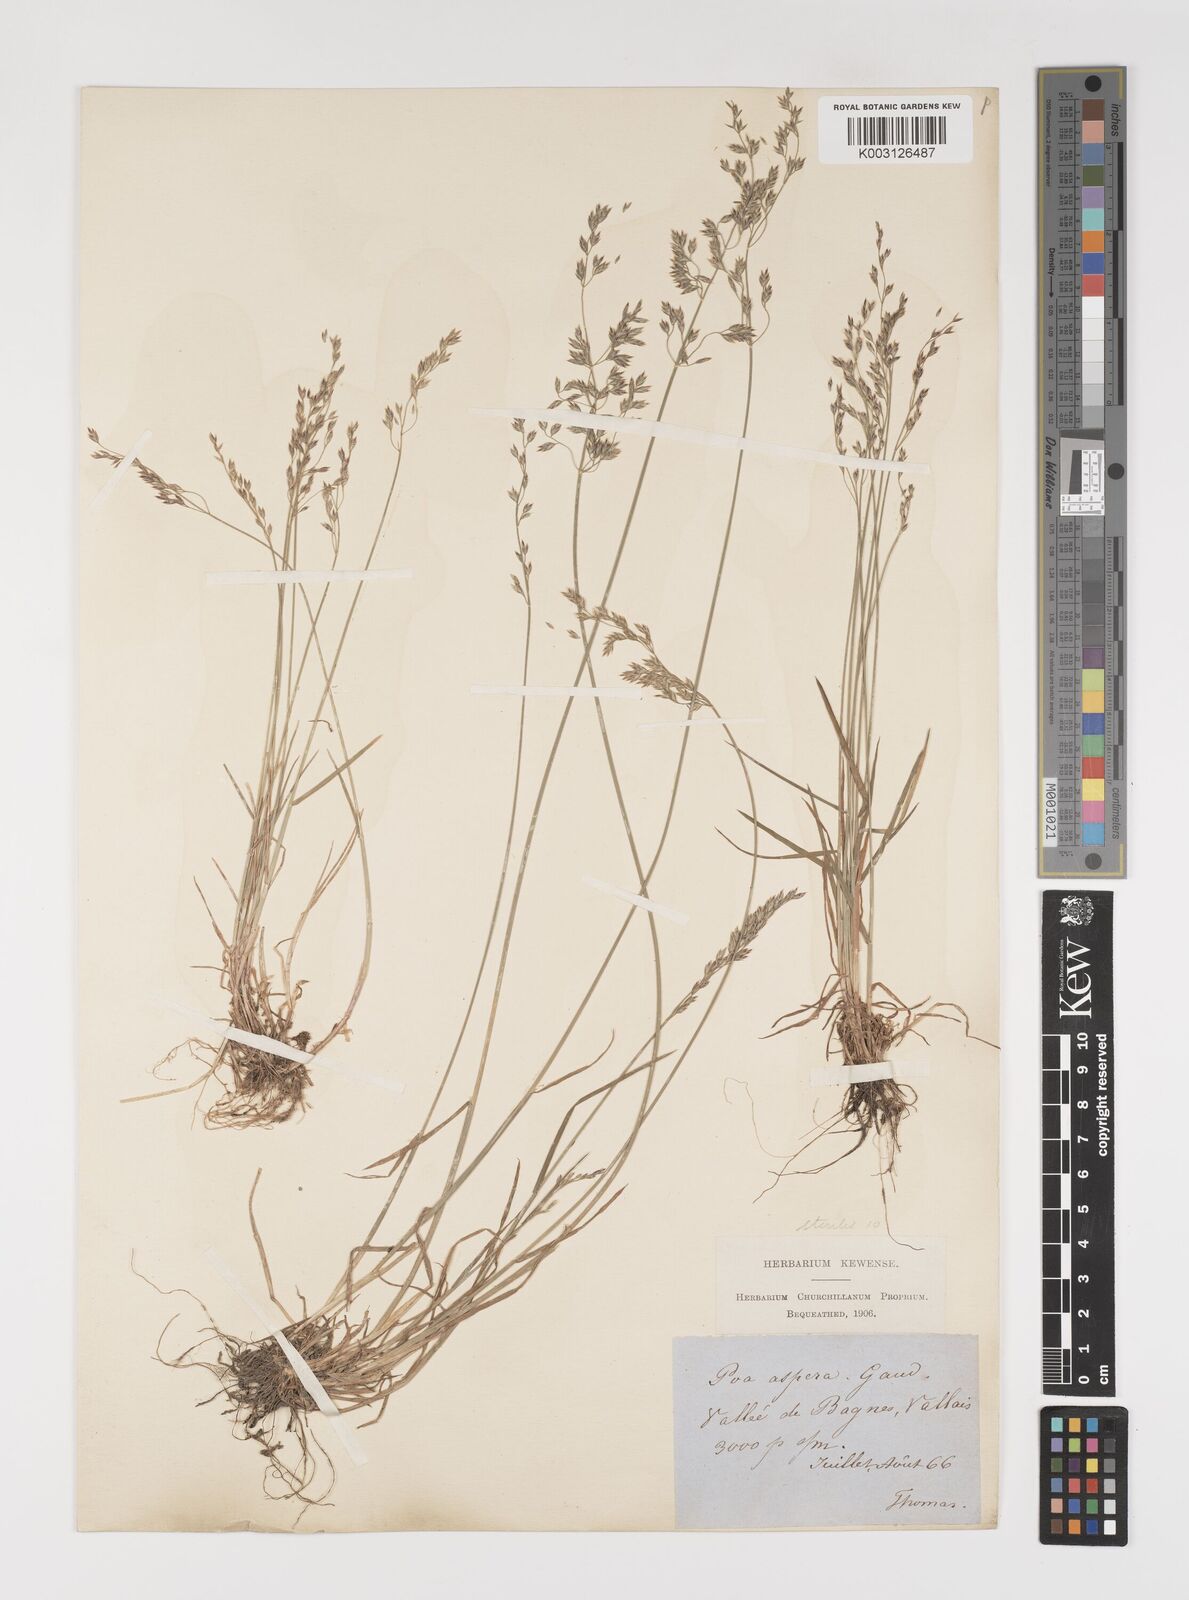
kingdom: Plantae
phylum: Tracheophyta
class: Liliopsida
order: Poales
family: Poaceae
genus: Poa
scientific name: Poa nemoralis
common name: Wood bluegrass
